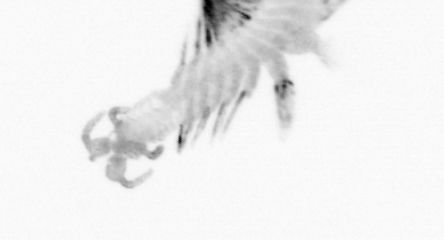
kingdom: Animalia
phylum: Annelida
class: Polychaeta
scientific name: Polychaeta
